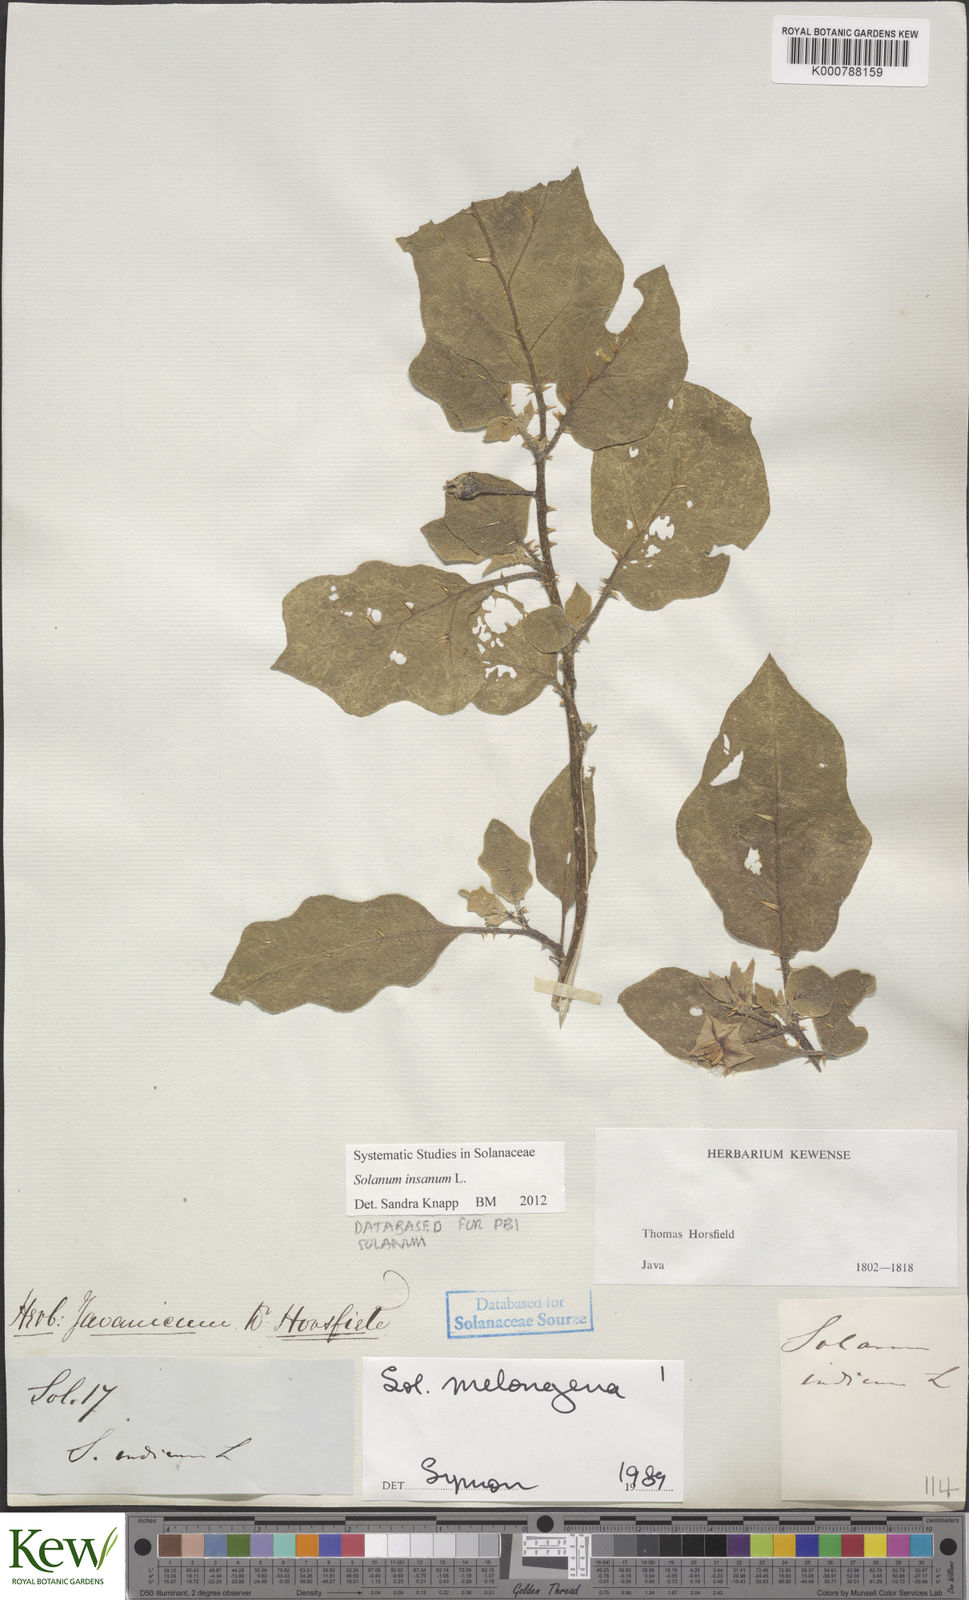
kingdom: Plantae
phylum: Tracheophyta
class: Magnoliopsida
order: Solanales
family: Solanaceae
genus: Solanum
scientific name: Solanum insanum
